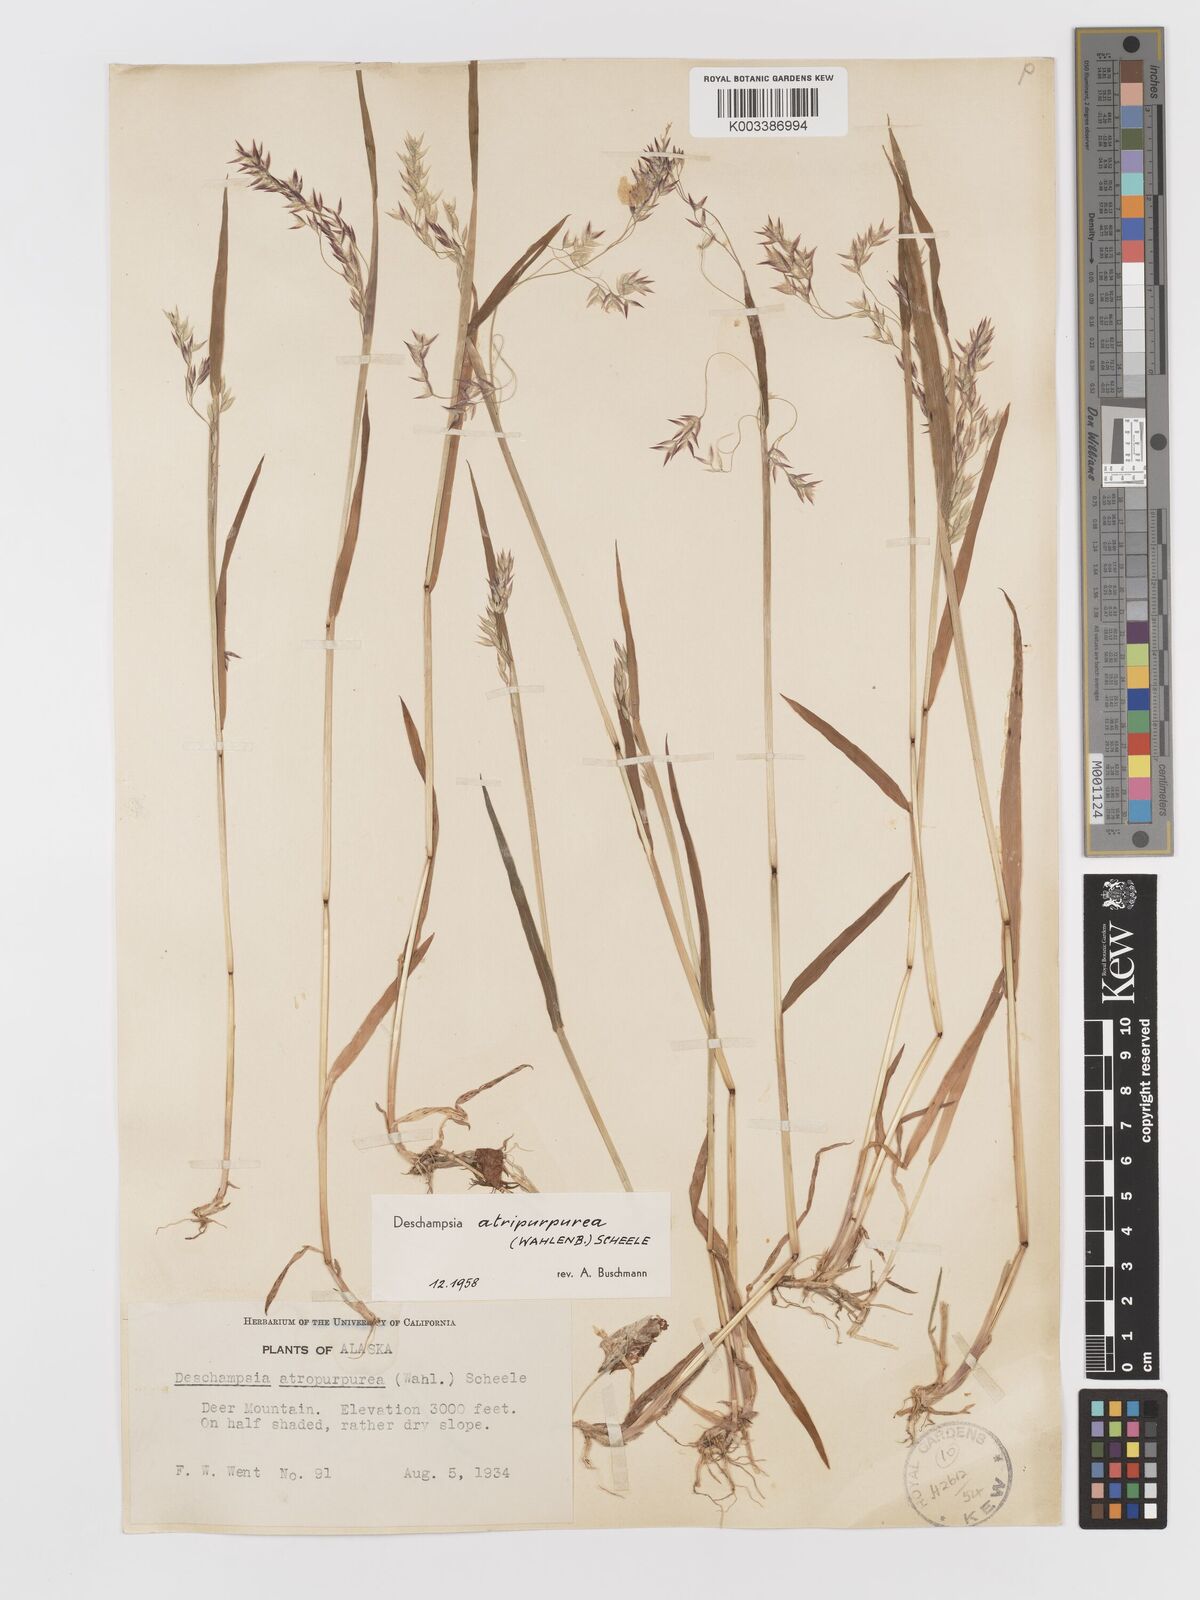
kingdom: Plantae
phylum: Tracheophyta
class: Liliopsida
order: Poales
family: Poaceae
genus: Vahlodea
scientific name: Vahlodea atropurpurea
